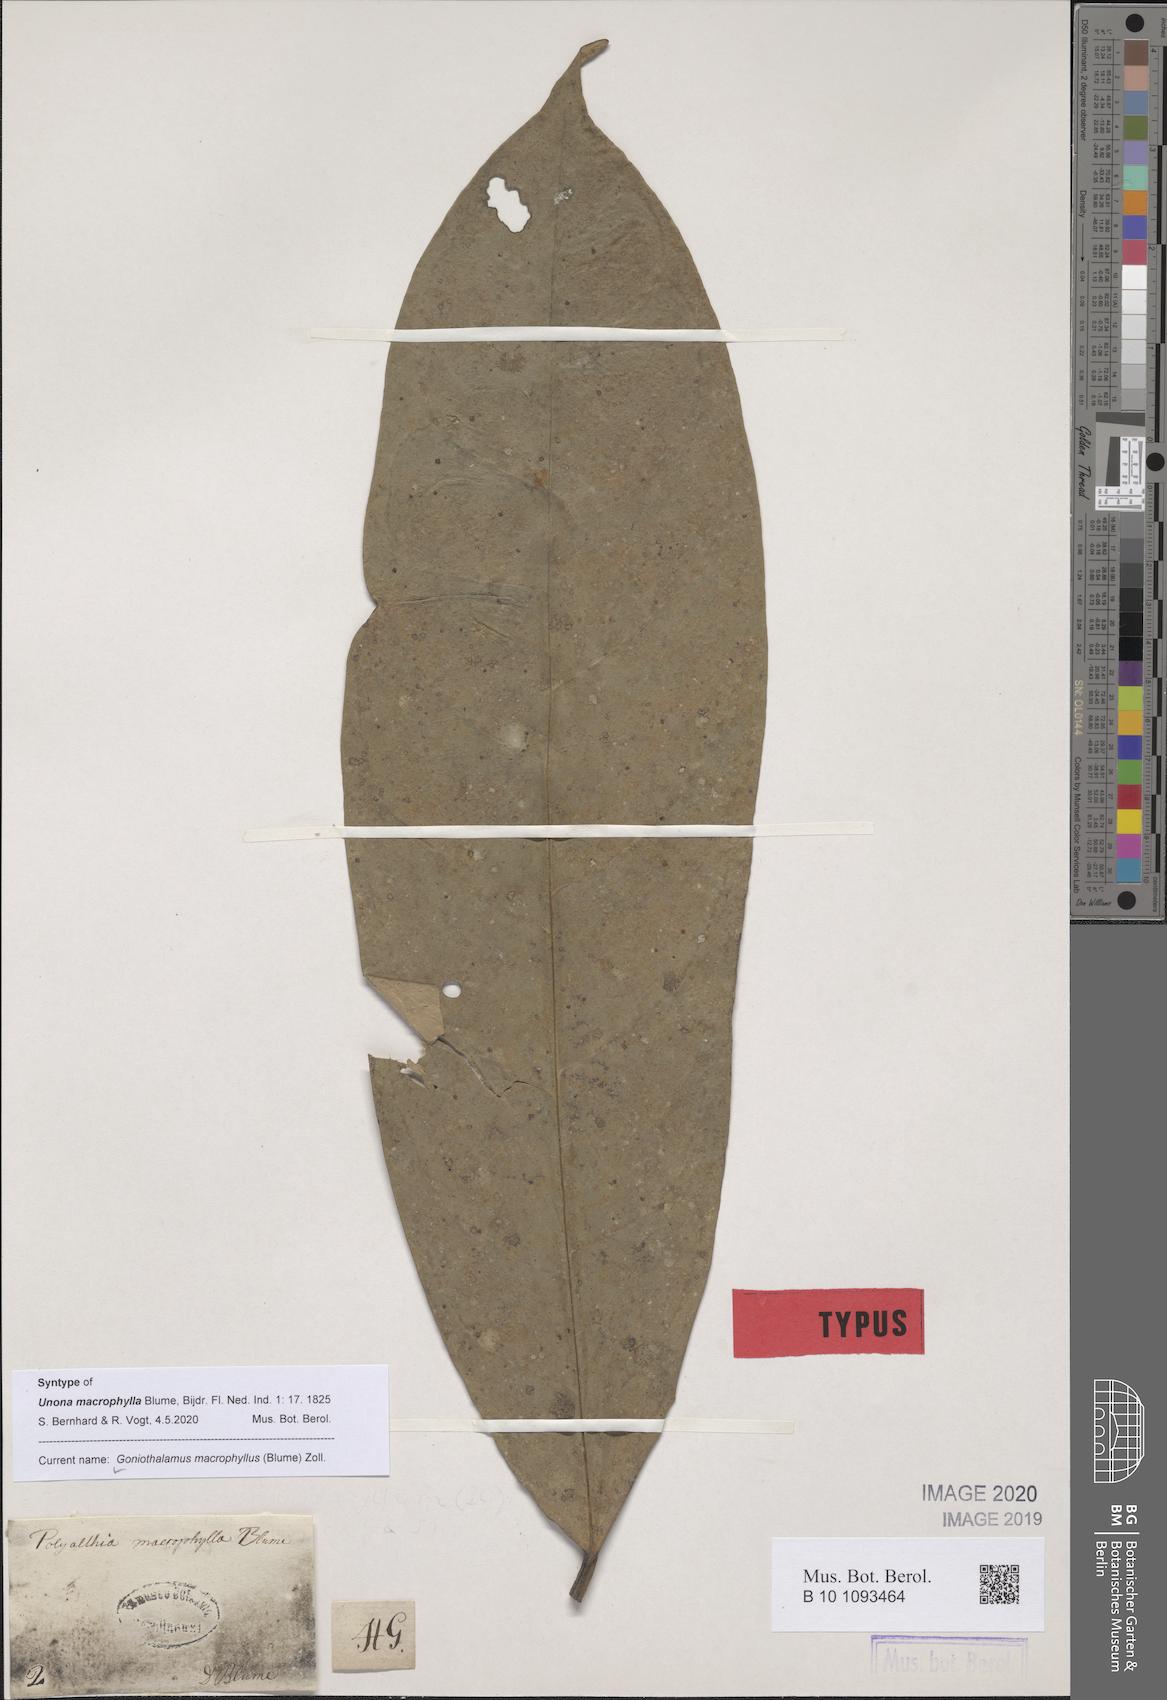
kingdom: Plantae
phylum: Tracheophyta
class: Magnoliopsida
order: Magnoliales
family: Annonaceae
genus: Goniothalamus
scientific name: Goniothalamus macrophyllus
